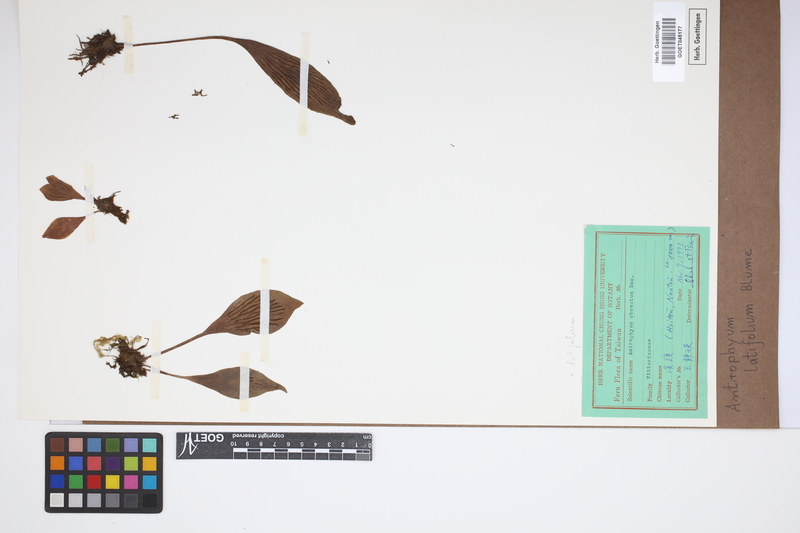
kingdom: Plantae
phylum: Tracheophyta
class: Polypodiopsida
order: Polypodiales
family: Pteridaceae
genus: Antrophyum
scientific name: Antrophyum latifolium
